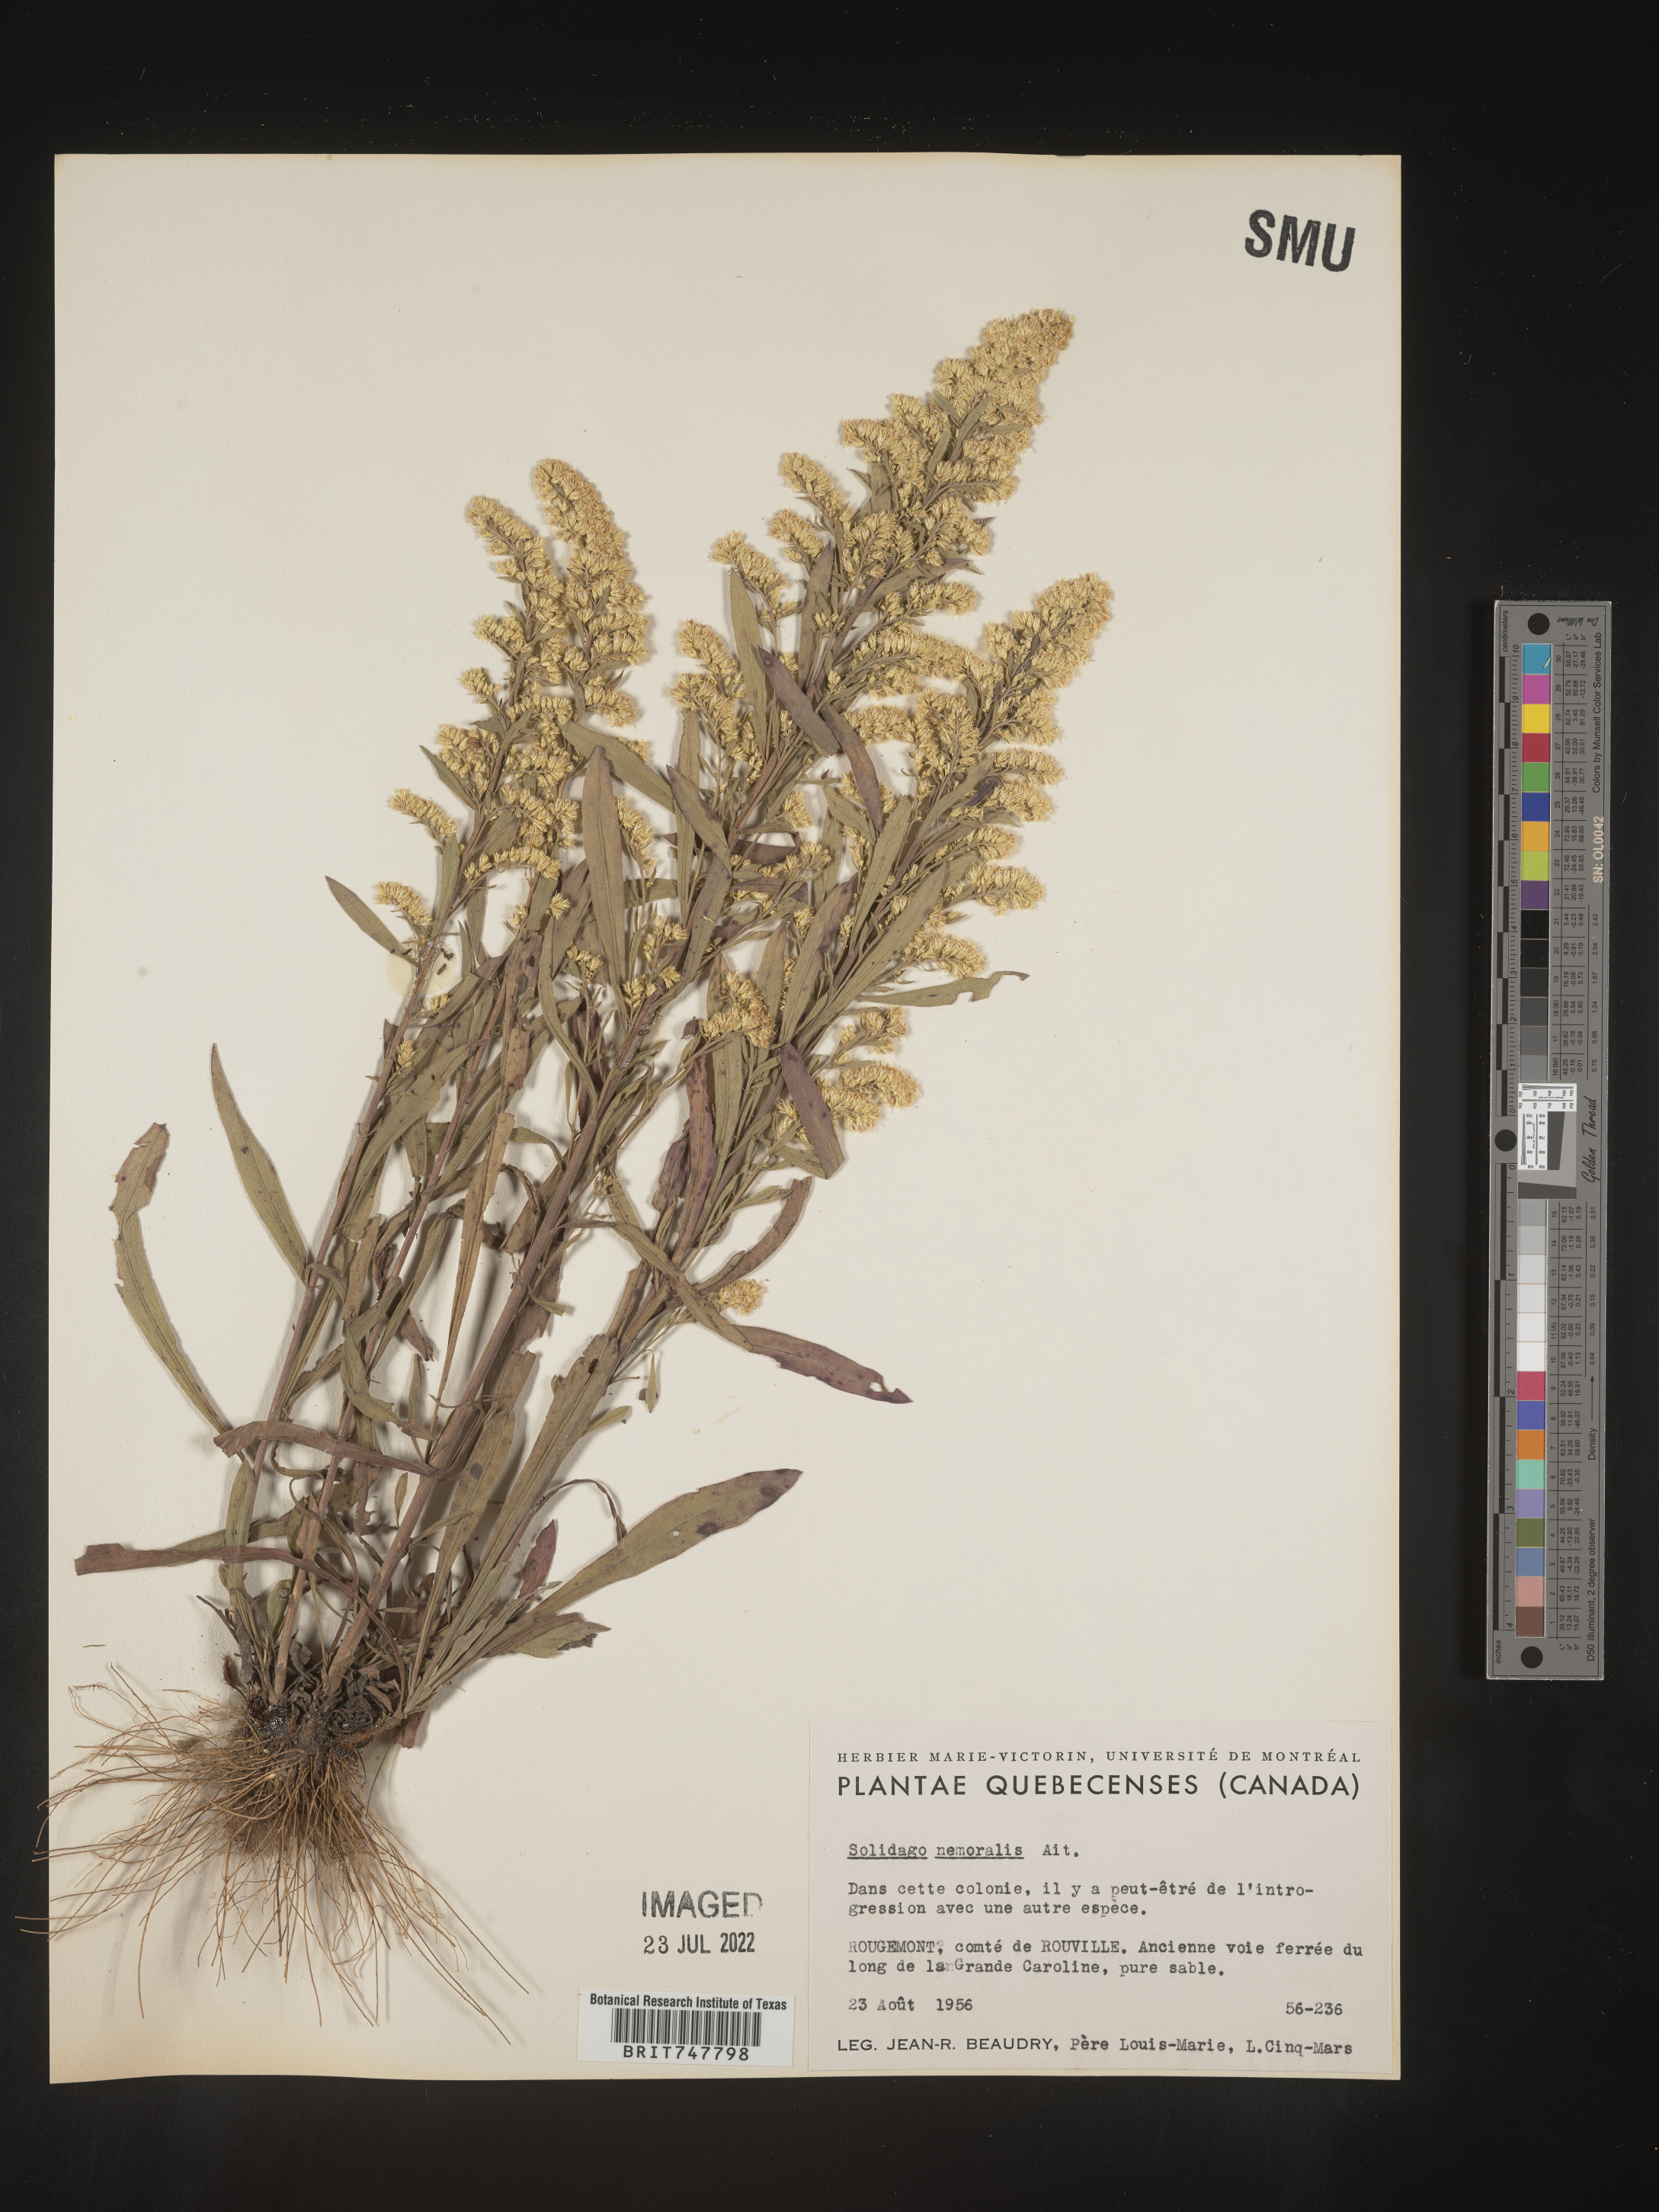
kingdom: Plantae
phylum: Tracheophyta
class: Magnoliopsida
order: Asterales
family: Asteraceae
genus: Solidago
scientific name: Solidago nemoralis
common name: Grey goldenrod
